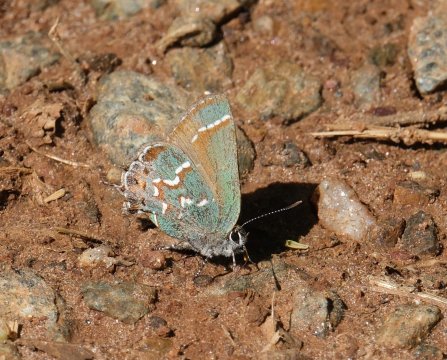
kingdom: Animalia
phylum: Arthropoda
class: Insecta
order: Lepidoptera
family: Lycaenidae
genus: Mitoura
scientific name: Mitoura gryneus
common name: Juniper Hairstreak
